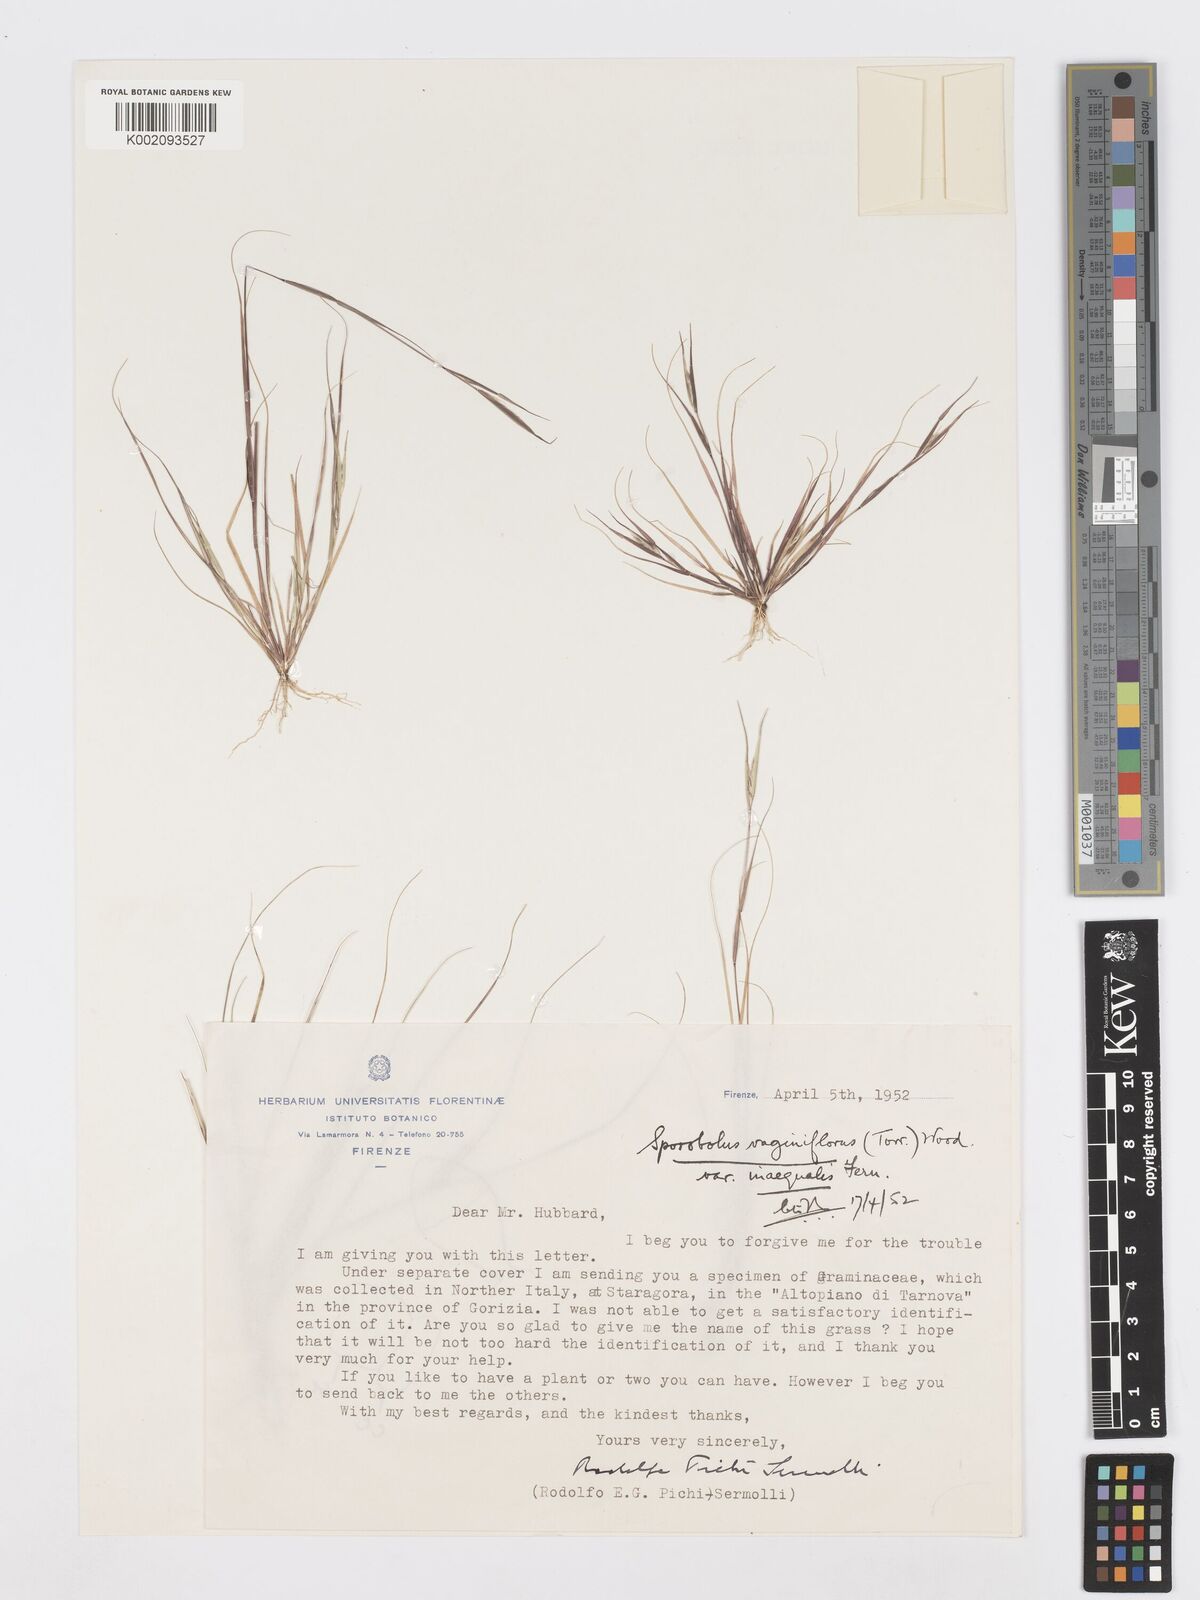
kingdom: Plantae
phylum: Tracheophyta
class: Liliopsida
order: Poales
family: Poaceae
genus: Sporobolus
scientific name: Sporobolus vaginiflorus
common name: Poverty dropseed
